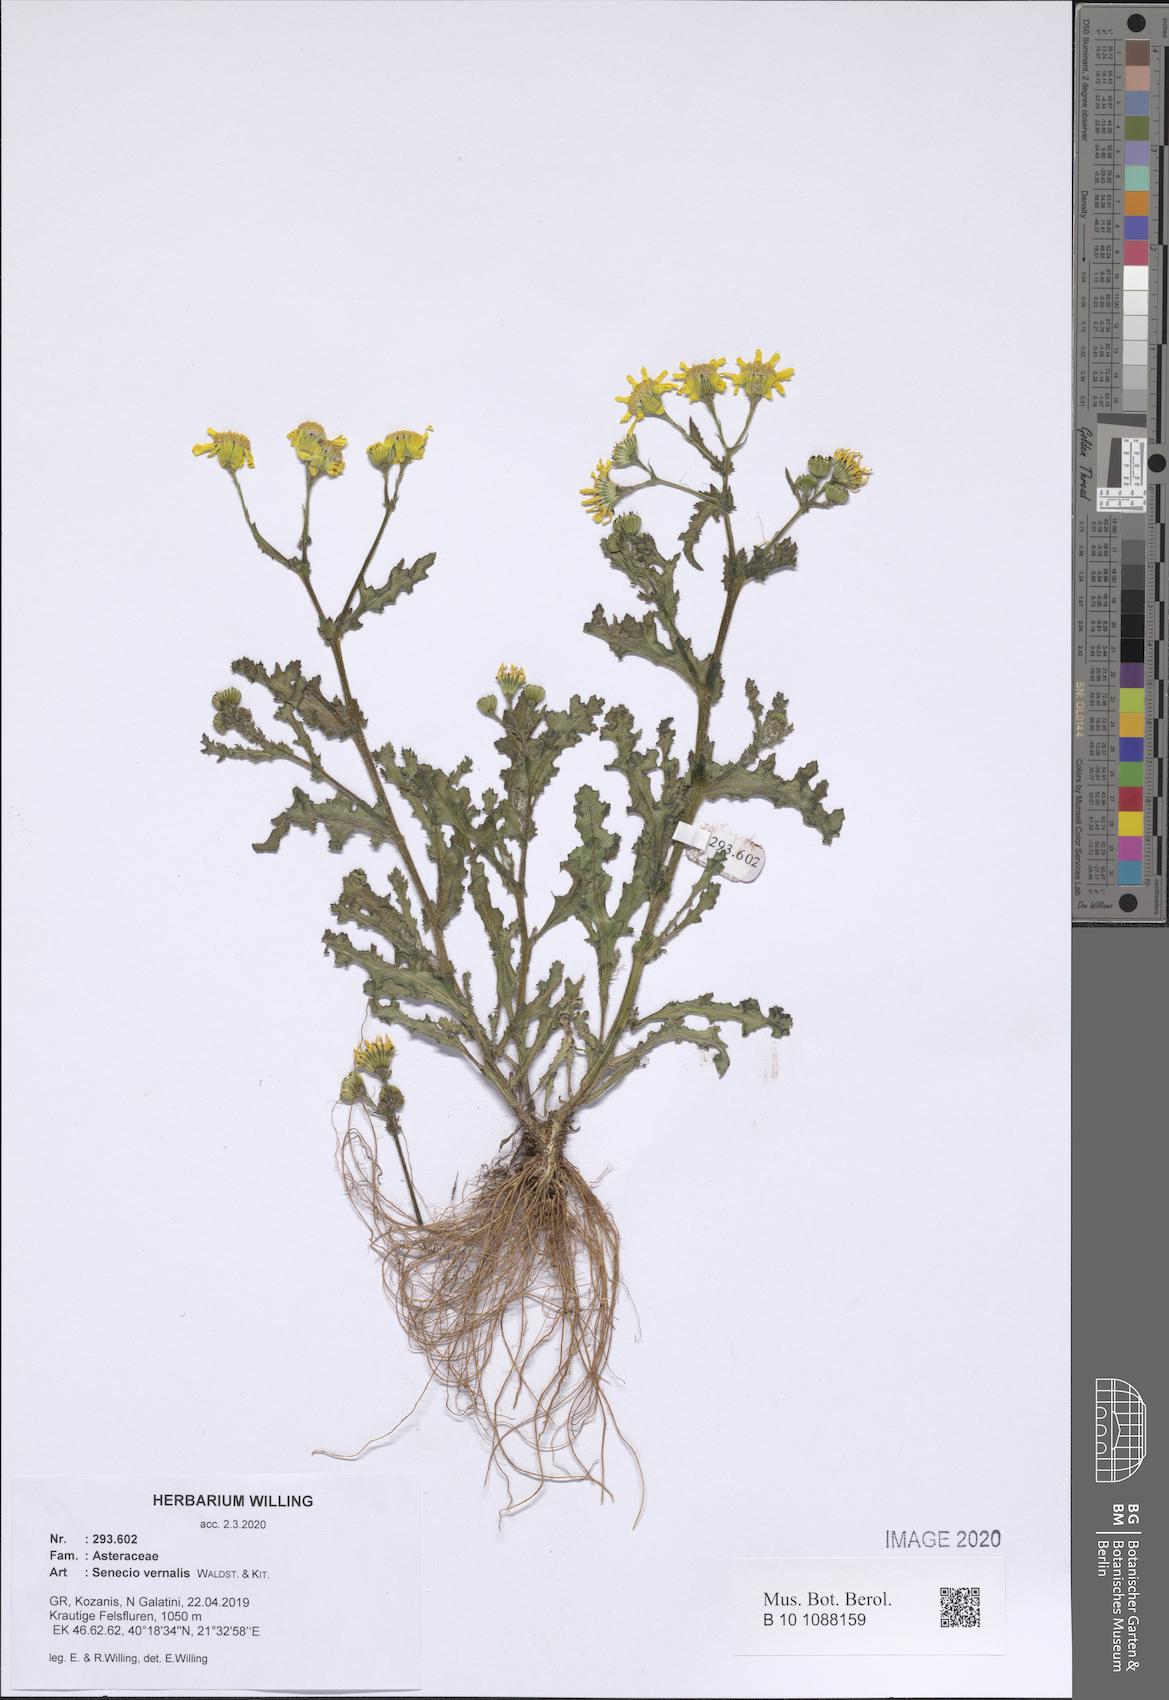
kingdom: Plantae
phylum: Tracheophyta
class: Magnoliopsida
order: Asterales
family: Asteraceae
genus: Senecio
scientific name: Senecio vernalis
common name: Eastern groundsel
